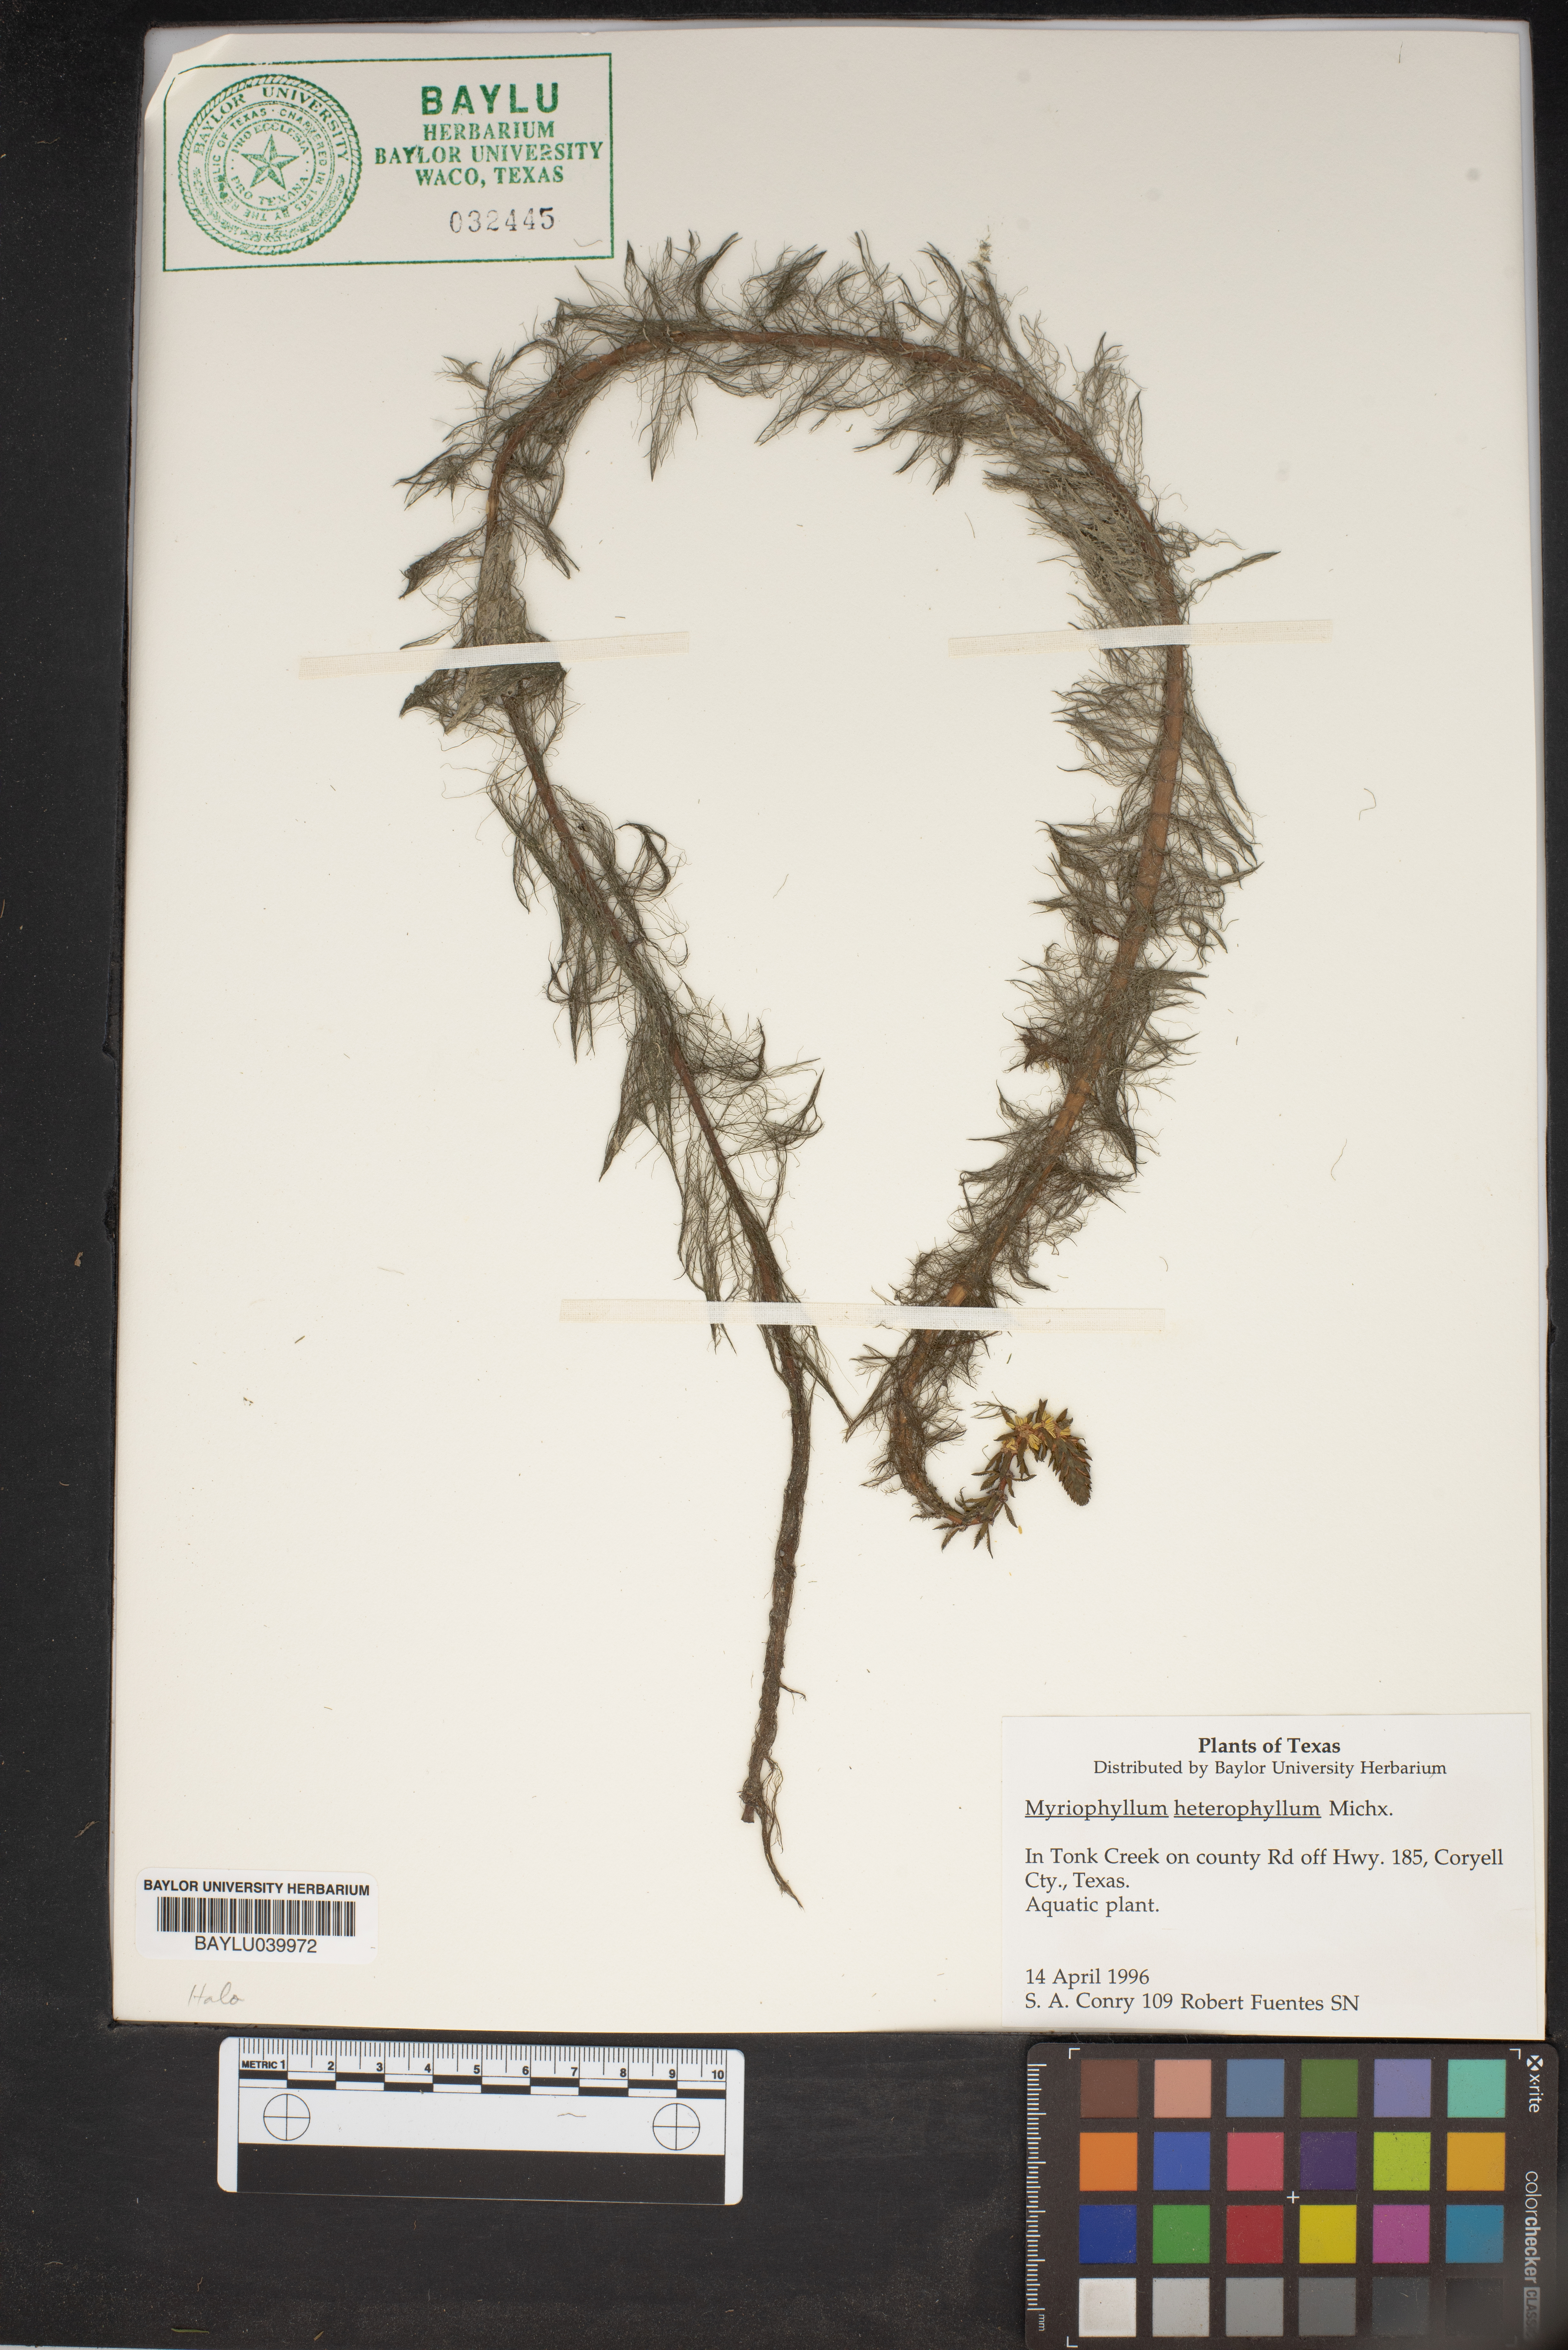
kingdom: Plantae
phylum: Tracheophyta
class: Magnoliopsida
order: Saxifragales
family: Haloragaceae
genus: Myriophyllum
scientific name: Myriophyllum heterophyllum
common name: Variable watermilfoil
